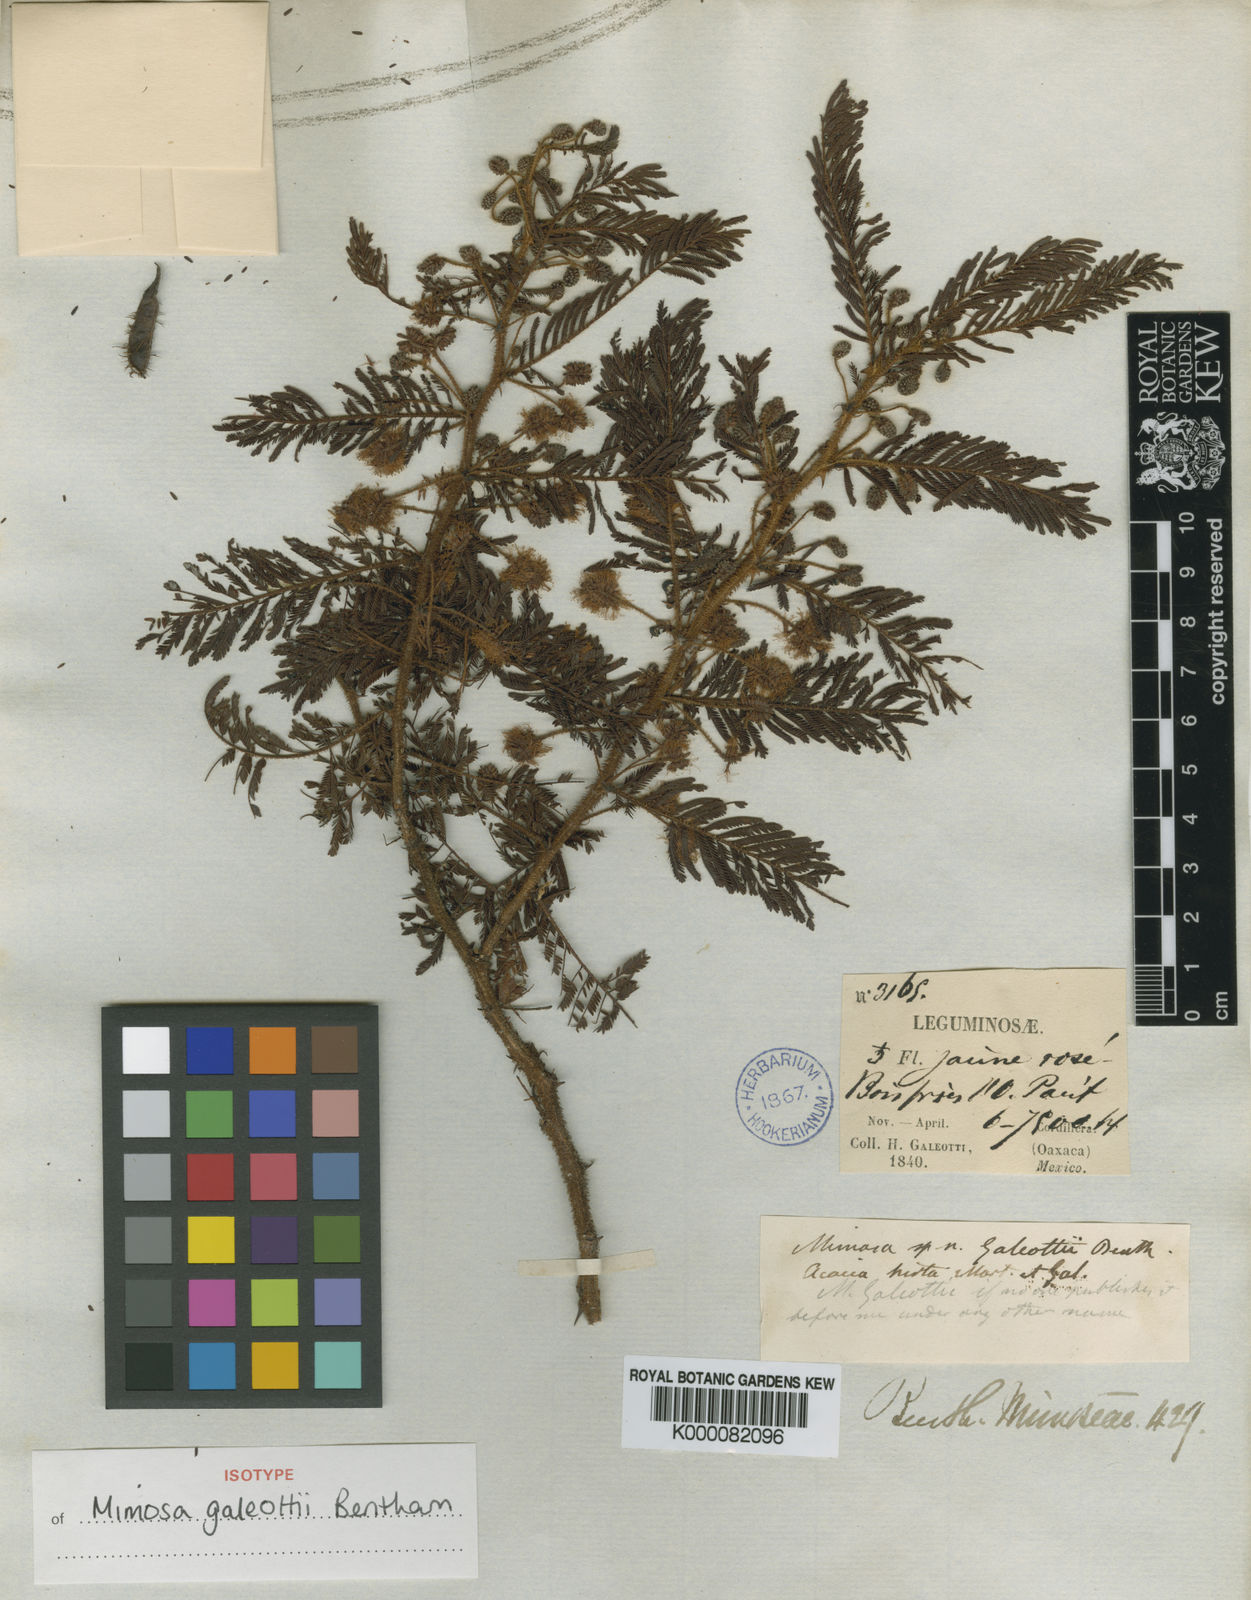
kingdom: Plantae
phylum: Tracheophyta
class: Magnoliopsida
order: Fabales
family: Fabaceae
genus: Mimosa
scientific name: Mimosa galeottii
